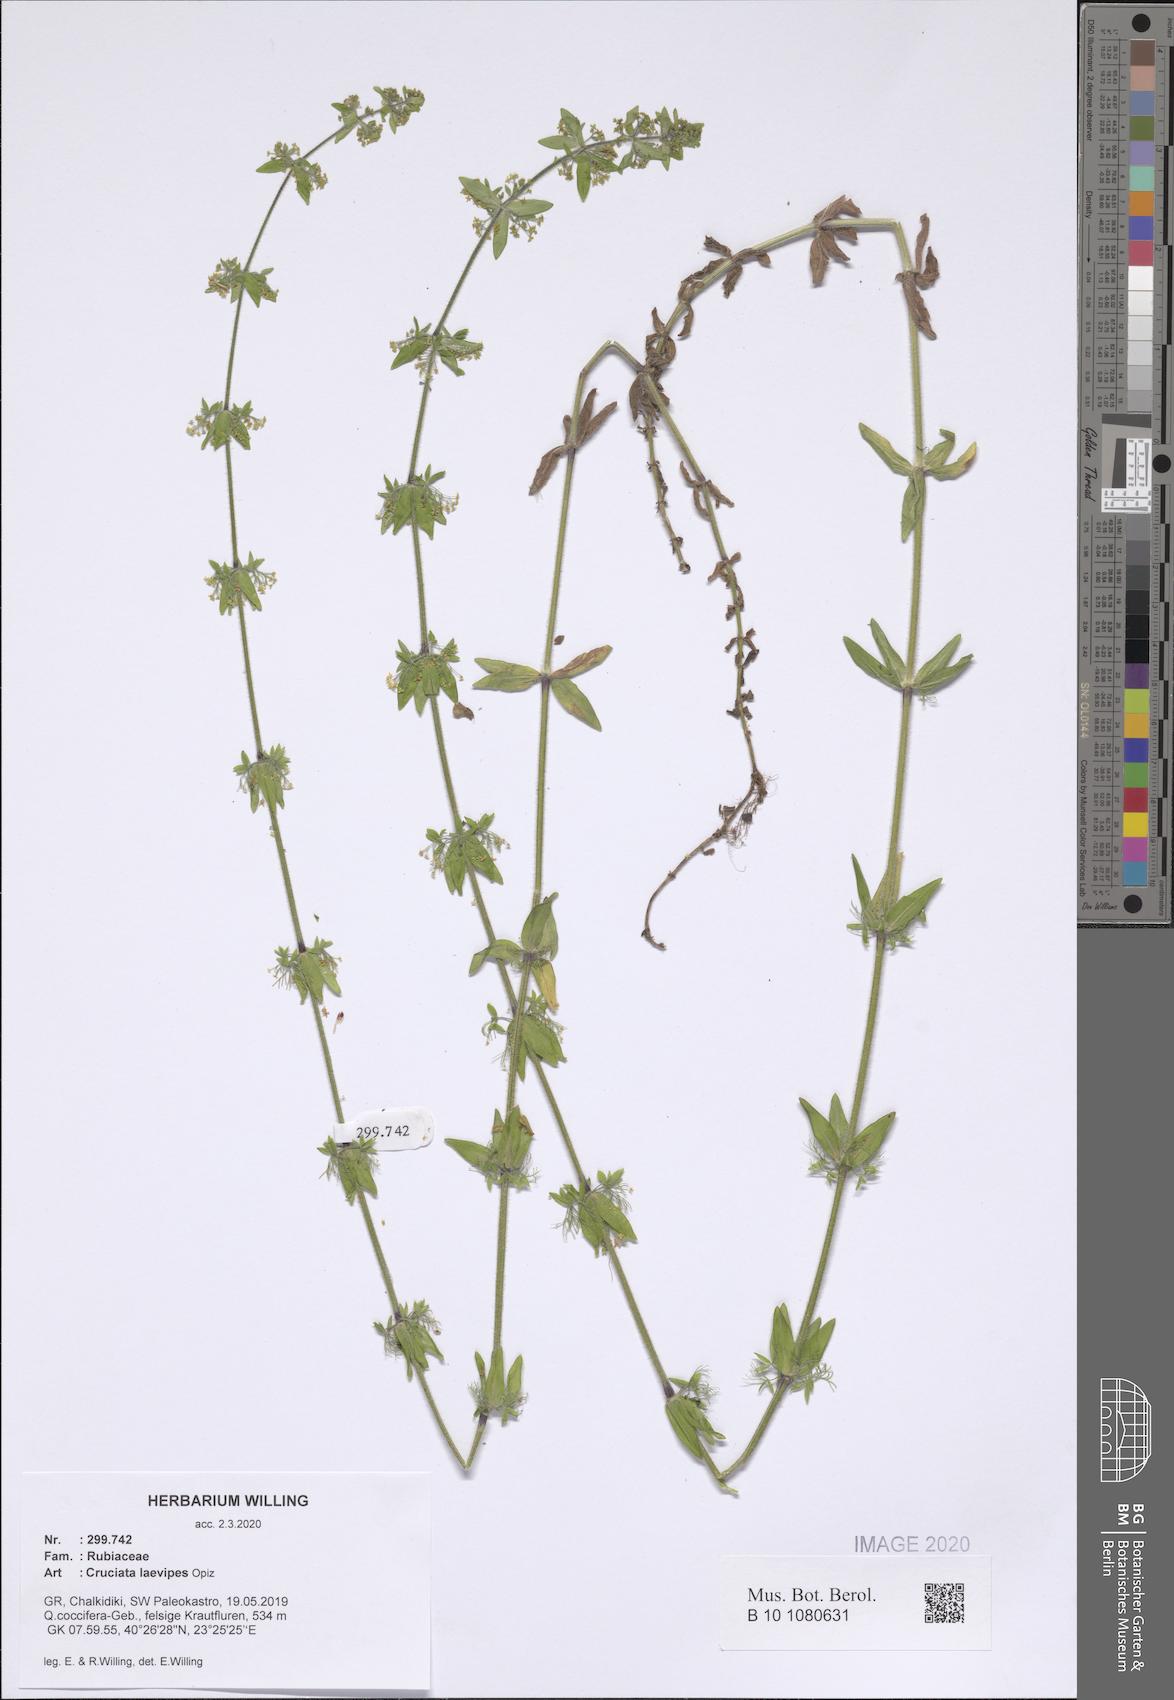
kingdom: Plantae
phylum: Tracheophyta
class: Magnoliopsida
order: Gentianales
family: Rubiaceae
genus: Cruciata
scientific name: Cruciata laevipes
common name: Crosswort
